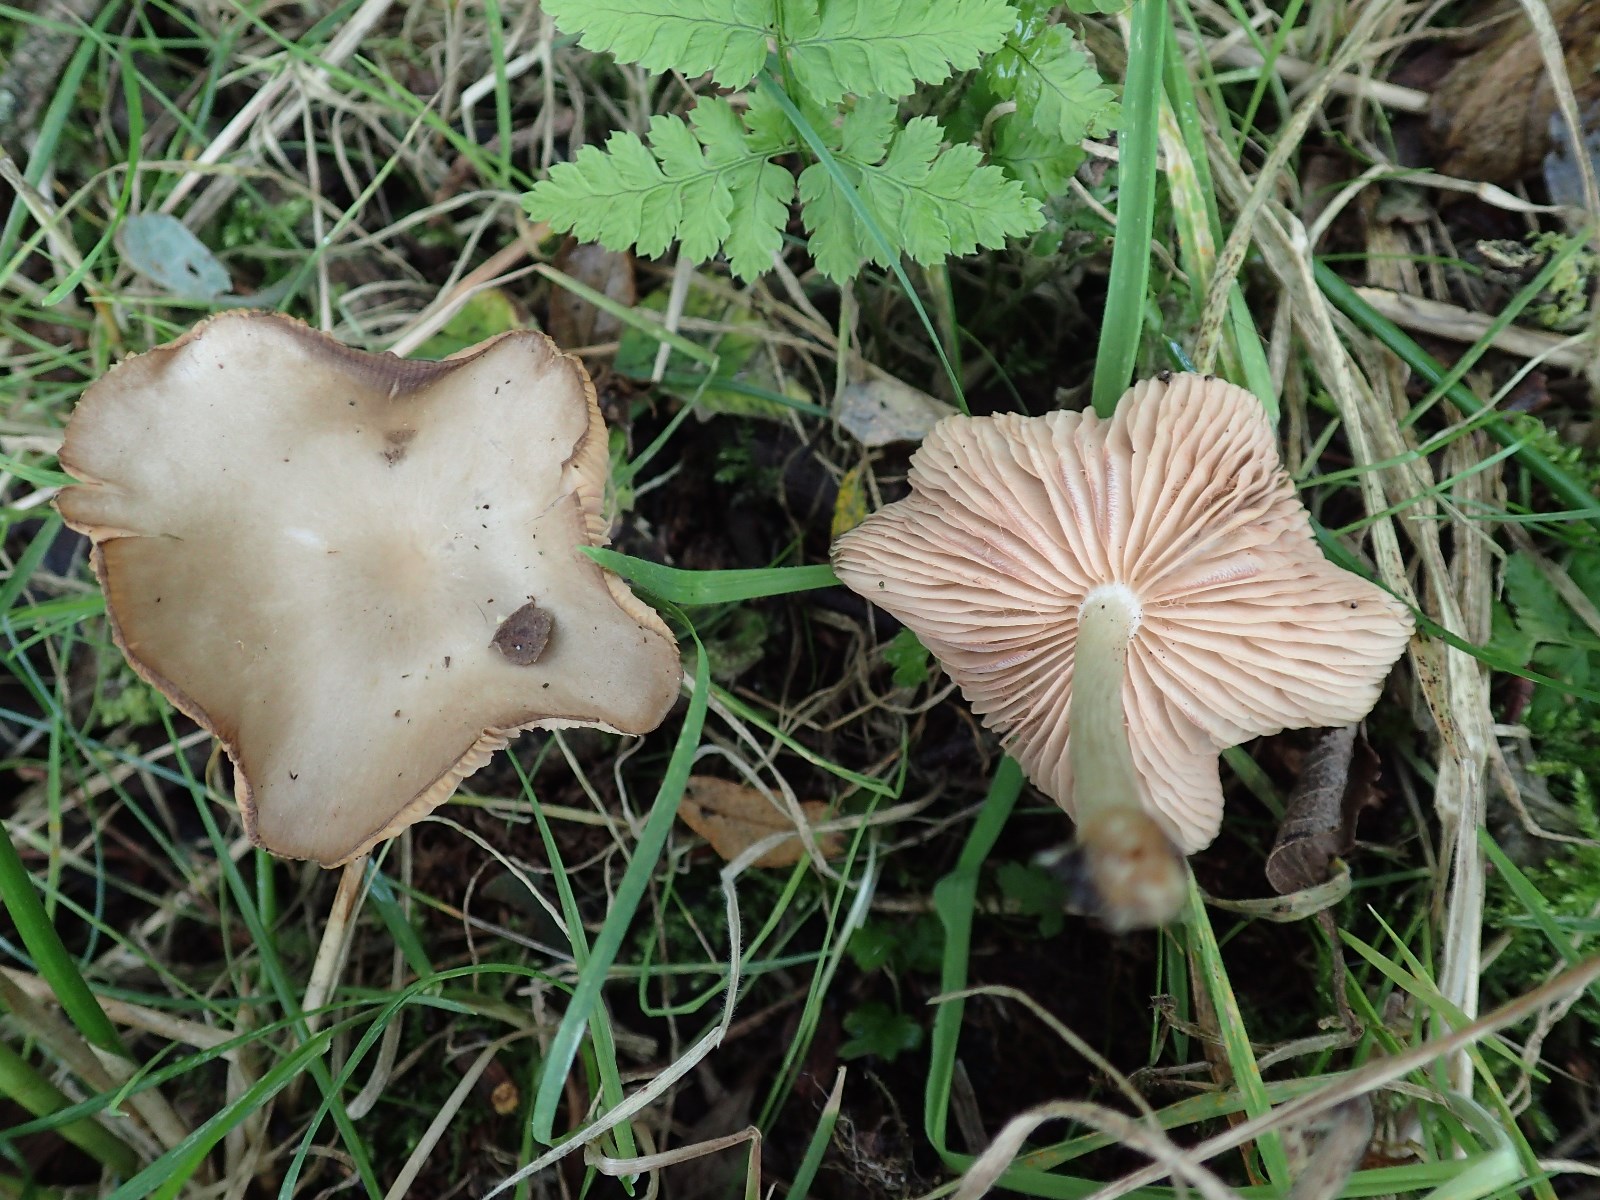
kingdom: Fungi
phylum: Basidiomycota
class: Agaricomycetes
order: Agaricales
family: Entolomataceae
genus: Entoloma
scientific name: Entoloma
